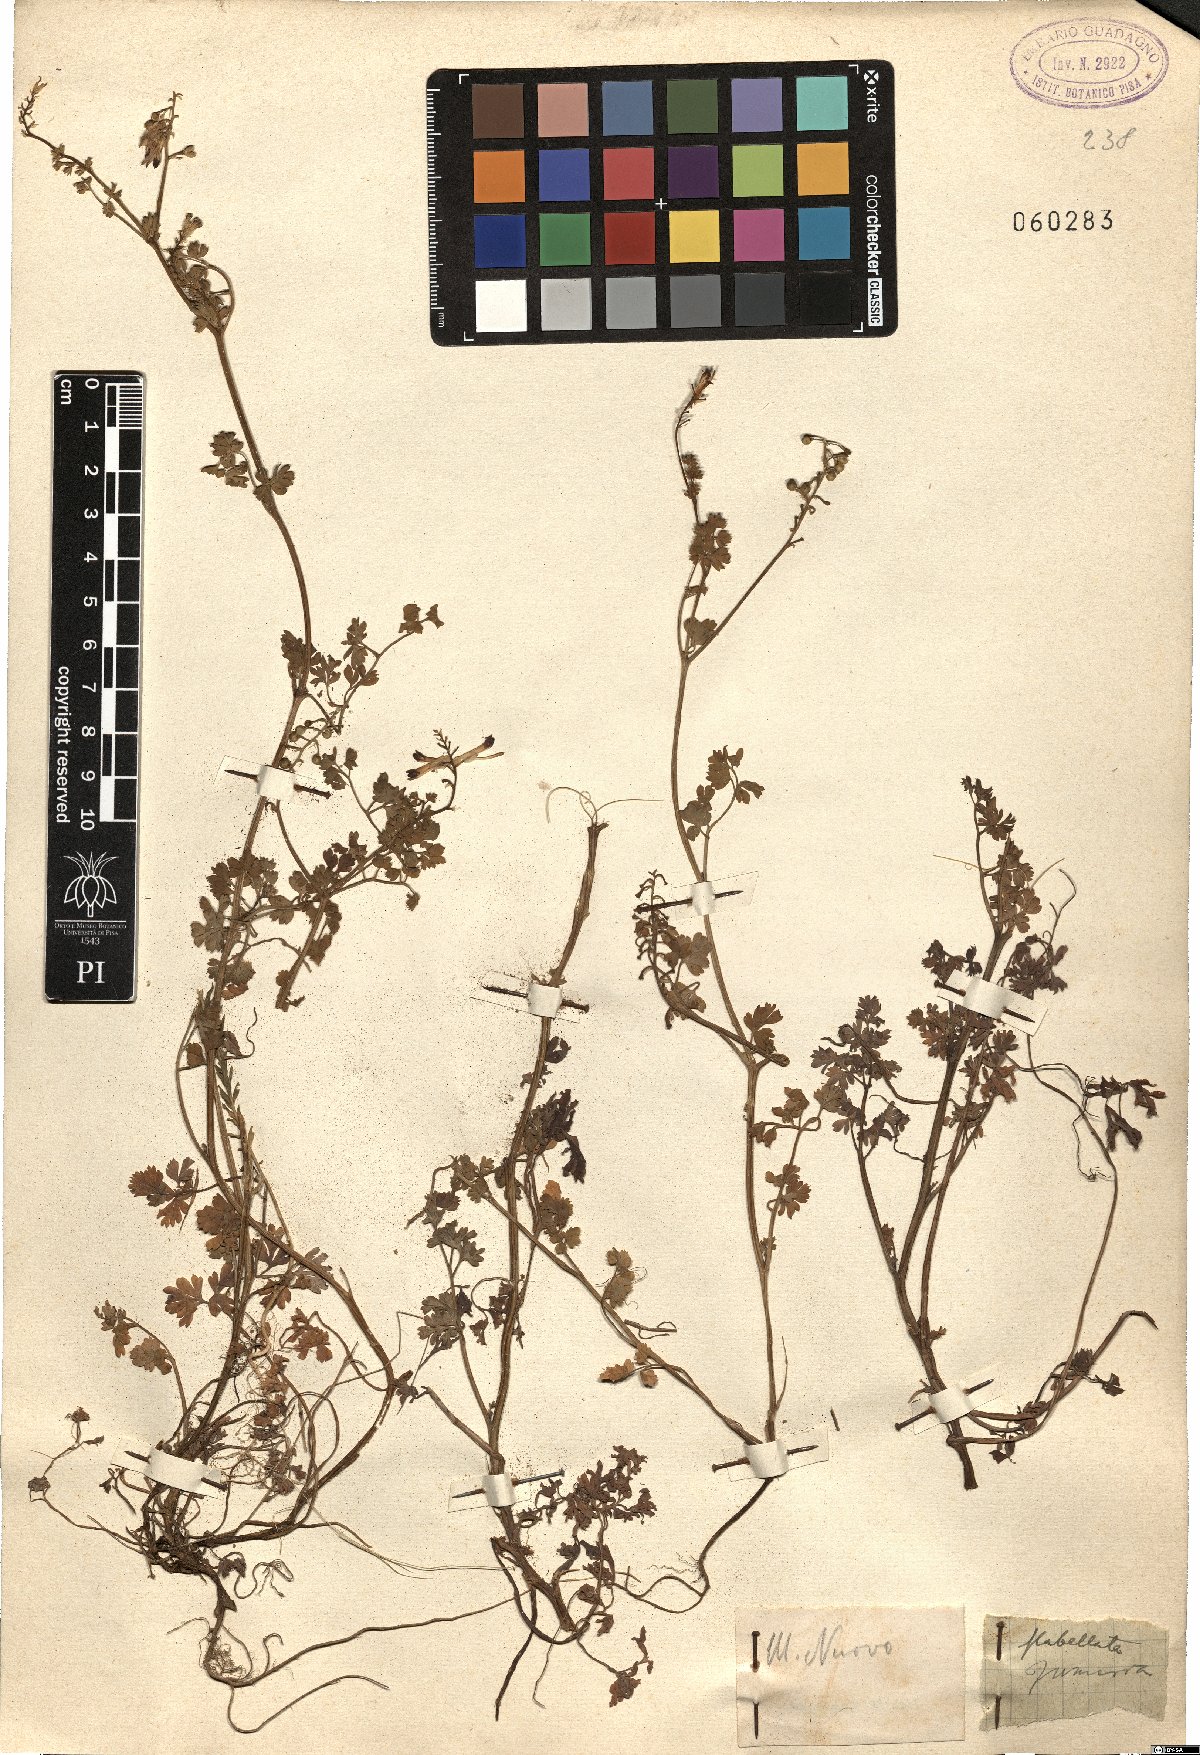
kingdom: Plantae
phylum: Tracheophyta
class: Magnoliopsida
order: Ranunculales
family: Papaveraceae
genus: Fumaria
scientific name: Fumaria flabellata
